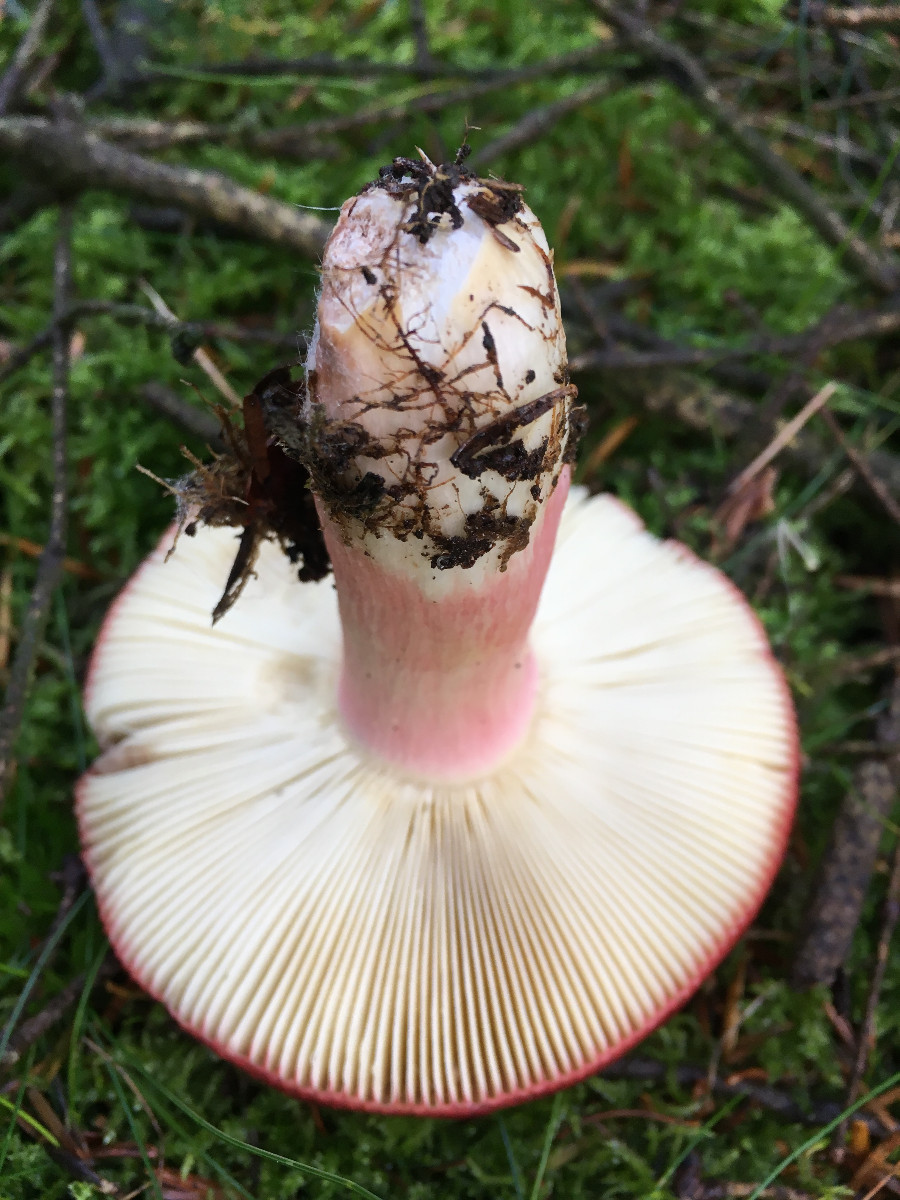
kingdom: Fungi
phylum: Basidiomycota
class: Agaricomycetes
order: Russulales
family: Russulaceae
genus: Russula
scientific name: Russula xerampelina
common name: hummer-skørhat
